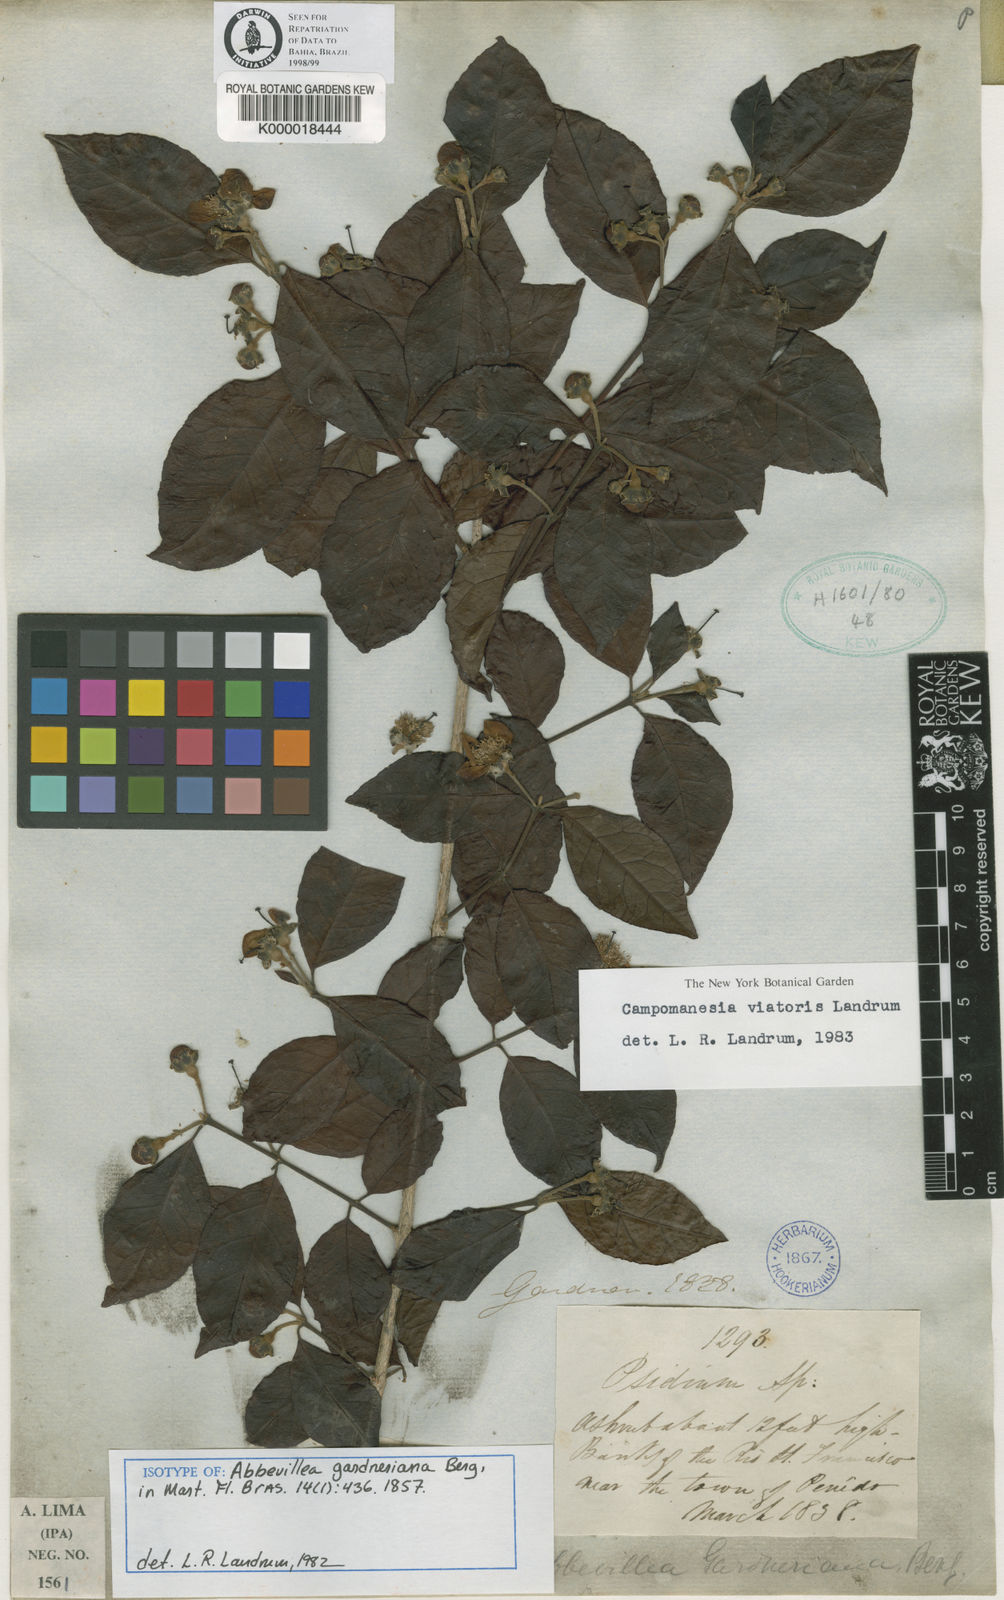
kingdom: Plantae
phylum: Tracheophyta
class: Magnoliopsida
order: Myrtales
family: Myrtaceae
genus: Campomanesia
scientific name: Campomanesia ilhoensis
